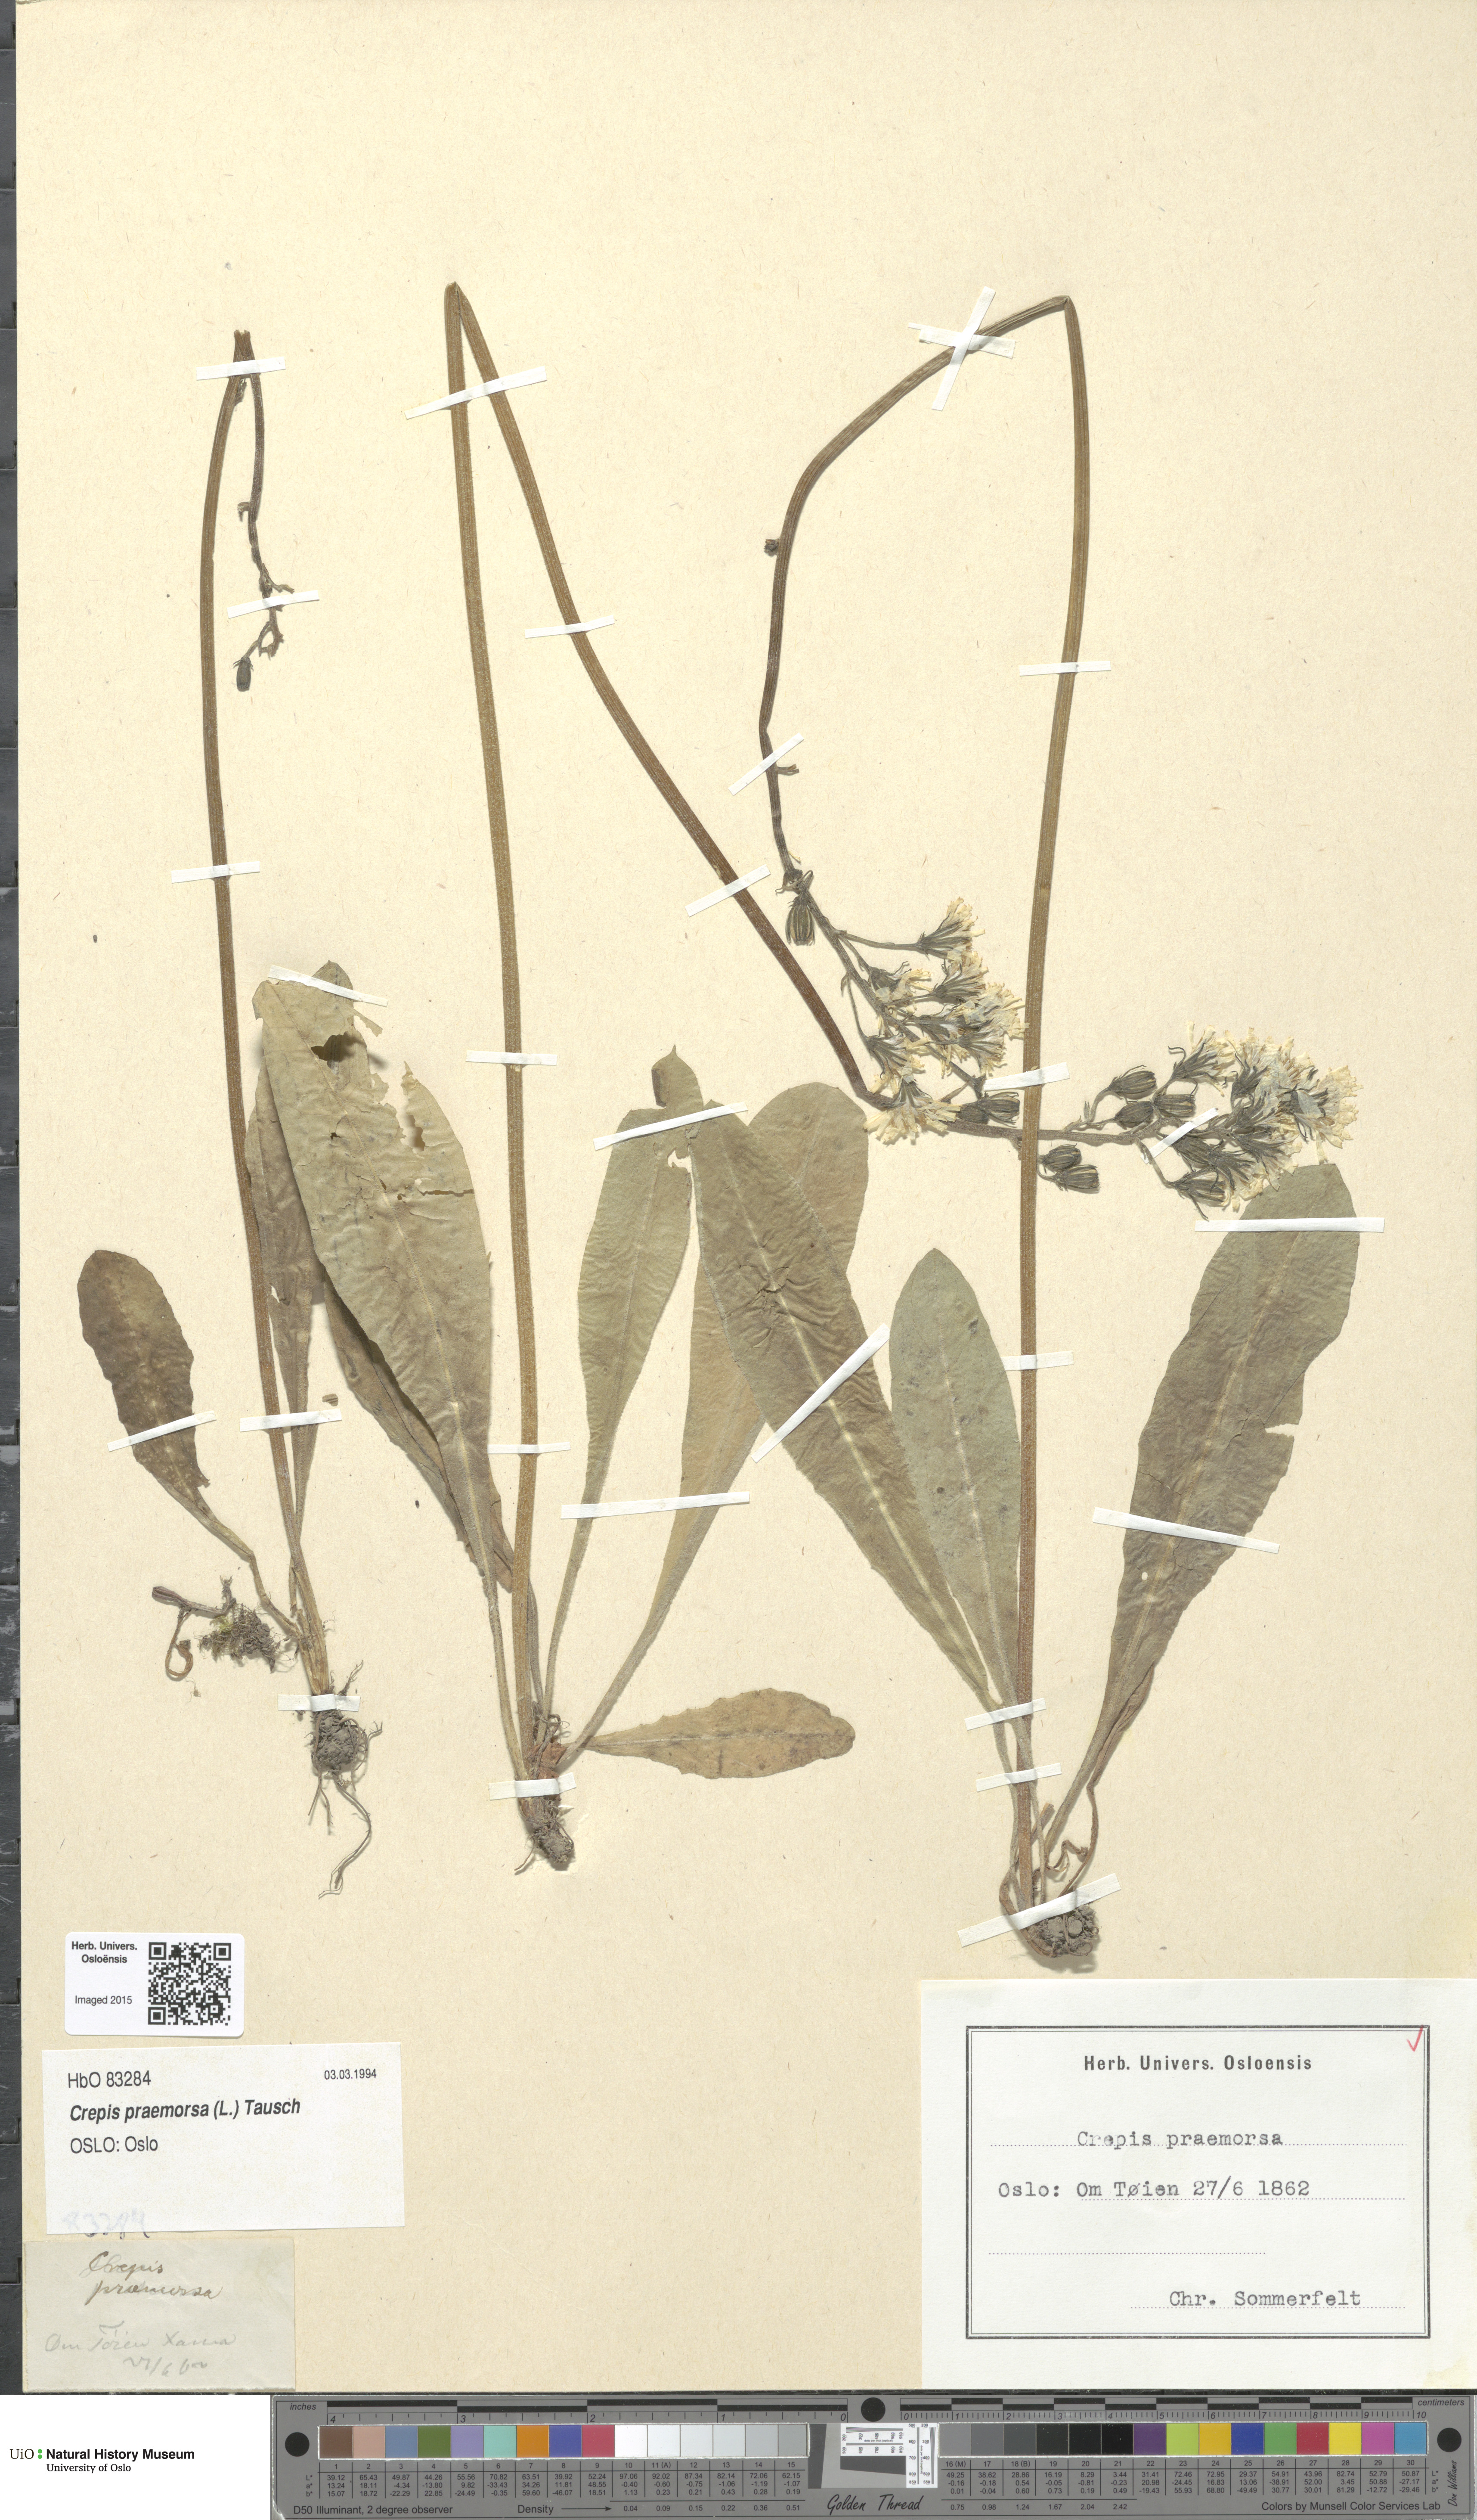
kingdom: Plantae
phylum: Tracheophyta
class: Magnoliopsida
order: Asterales
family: Asteraceae
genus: Crepis
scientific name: Crepis praemorsa
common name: Leafless hawk's-beard
